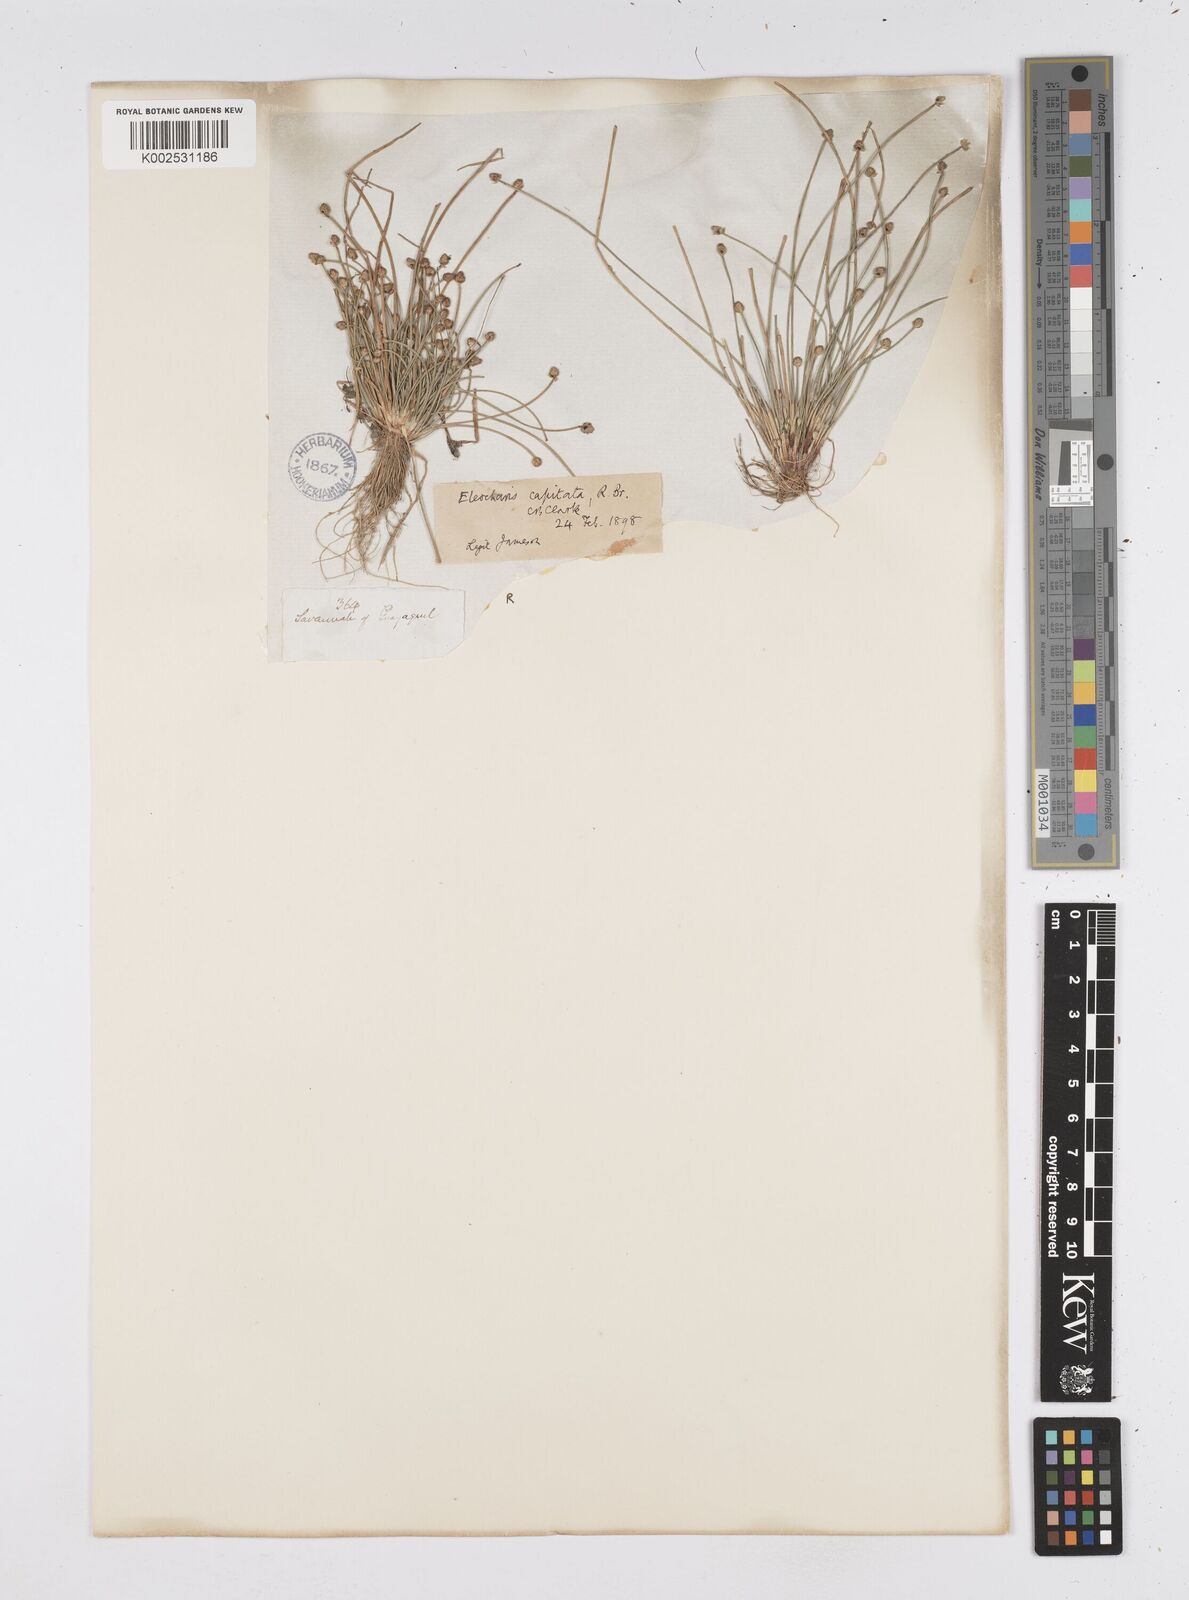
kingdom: Plantae
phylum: Tracheophyta
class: Liliopsida
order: Poales
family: Cyperaceae
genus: Eleocharis
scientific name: Eleocharis geniculata
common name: Canada spikesedge
